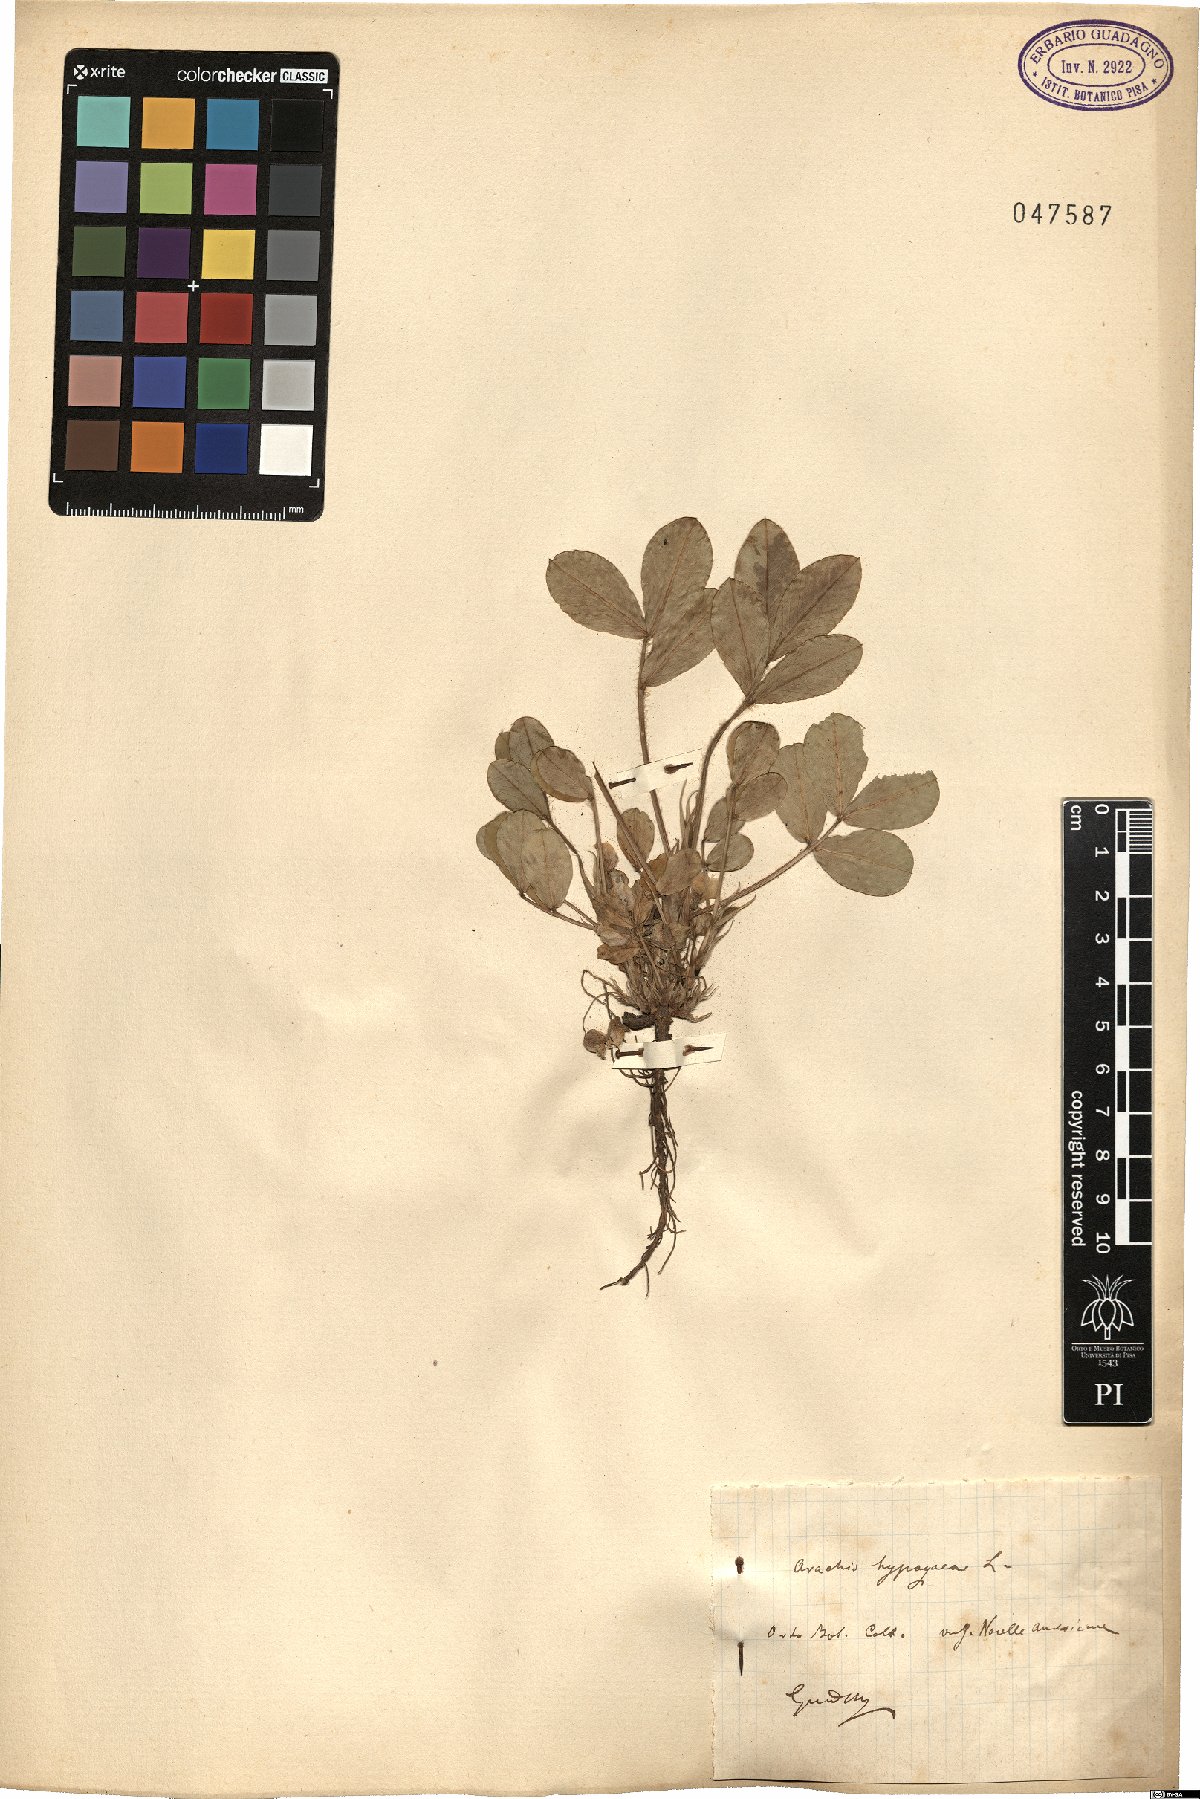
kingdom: Plantae
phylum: Tracheophyta
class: Magnoliopsida
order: Fabales
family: Fabaceae
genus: Arachis
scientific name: Arachis hypogaea
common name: Peanut
